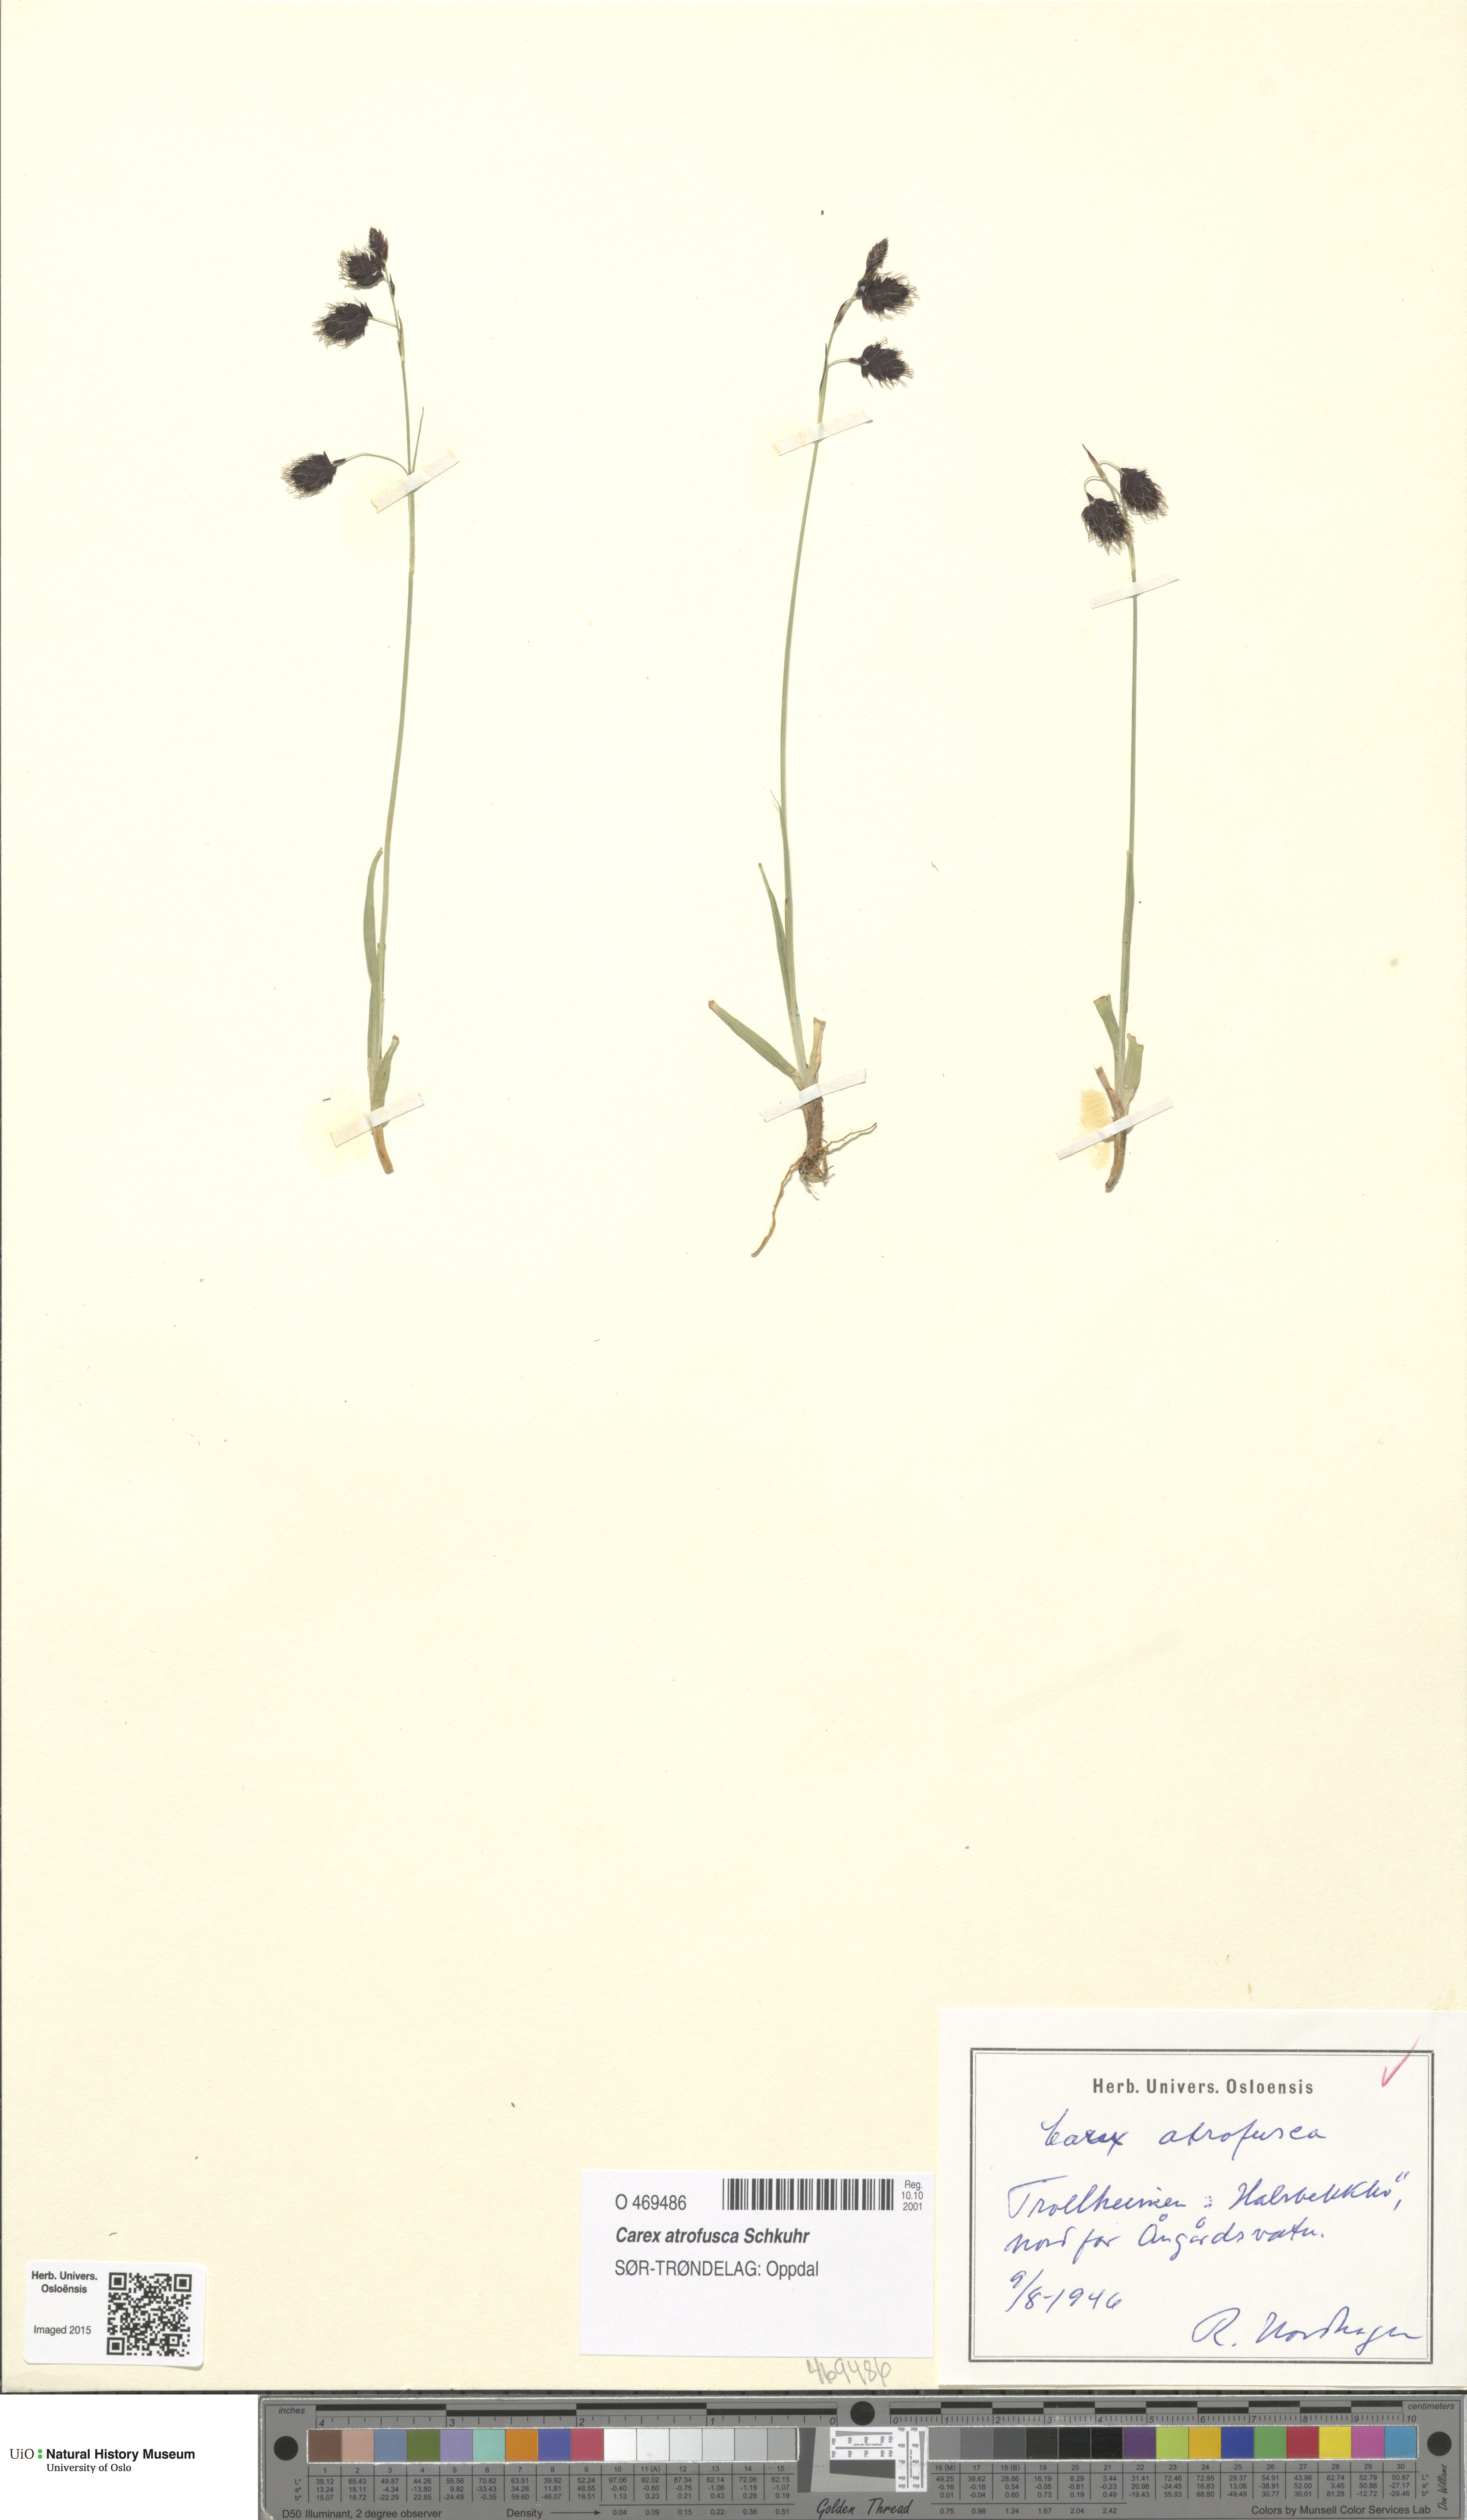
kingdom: Plantae
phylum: Tracheophyta
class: Liliopsida
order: Poales
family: Cyperaceae
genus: Carex
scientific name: Carex atrofusca
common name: Scorched alpine-sedge
